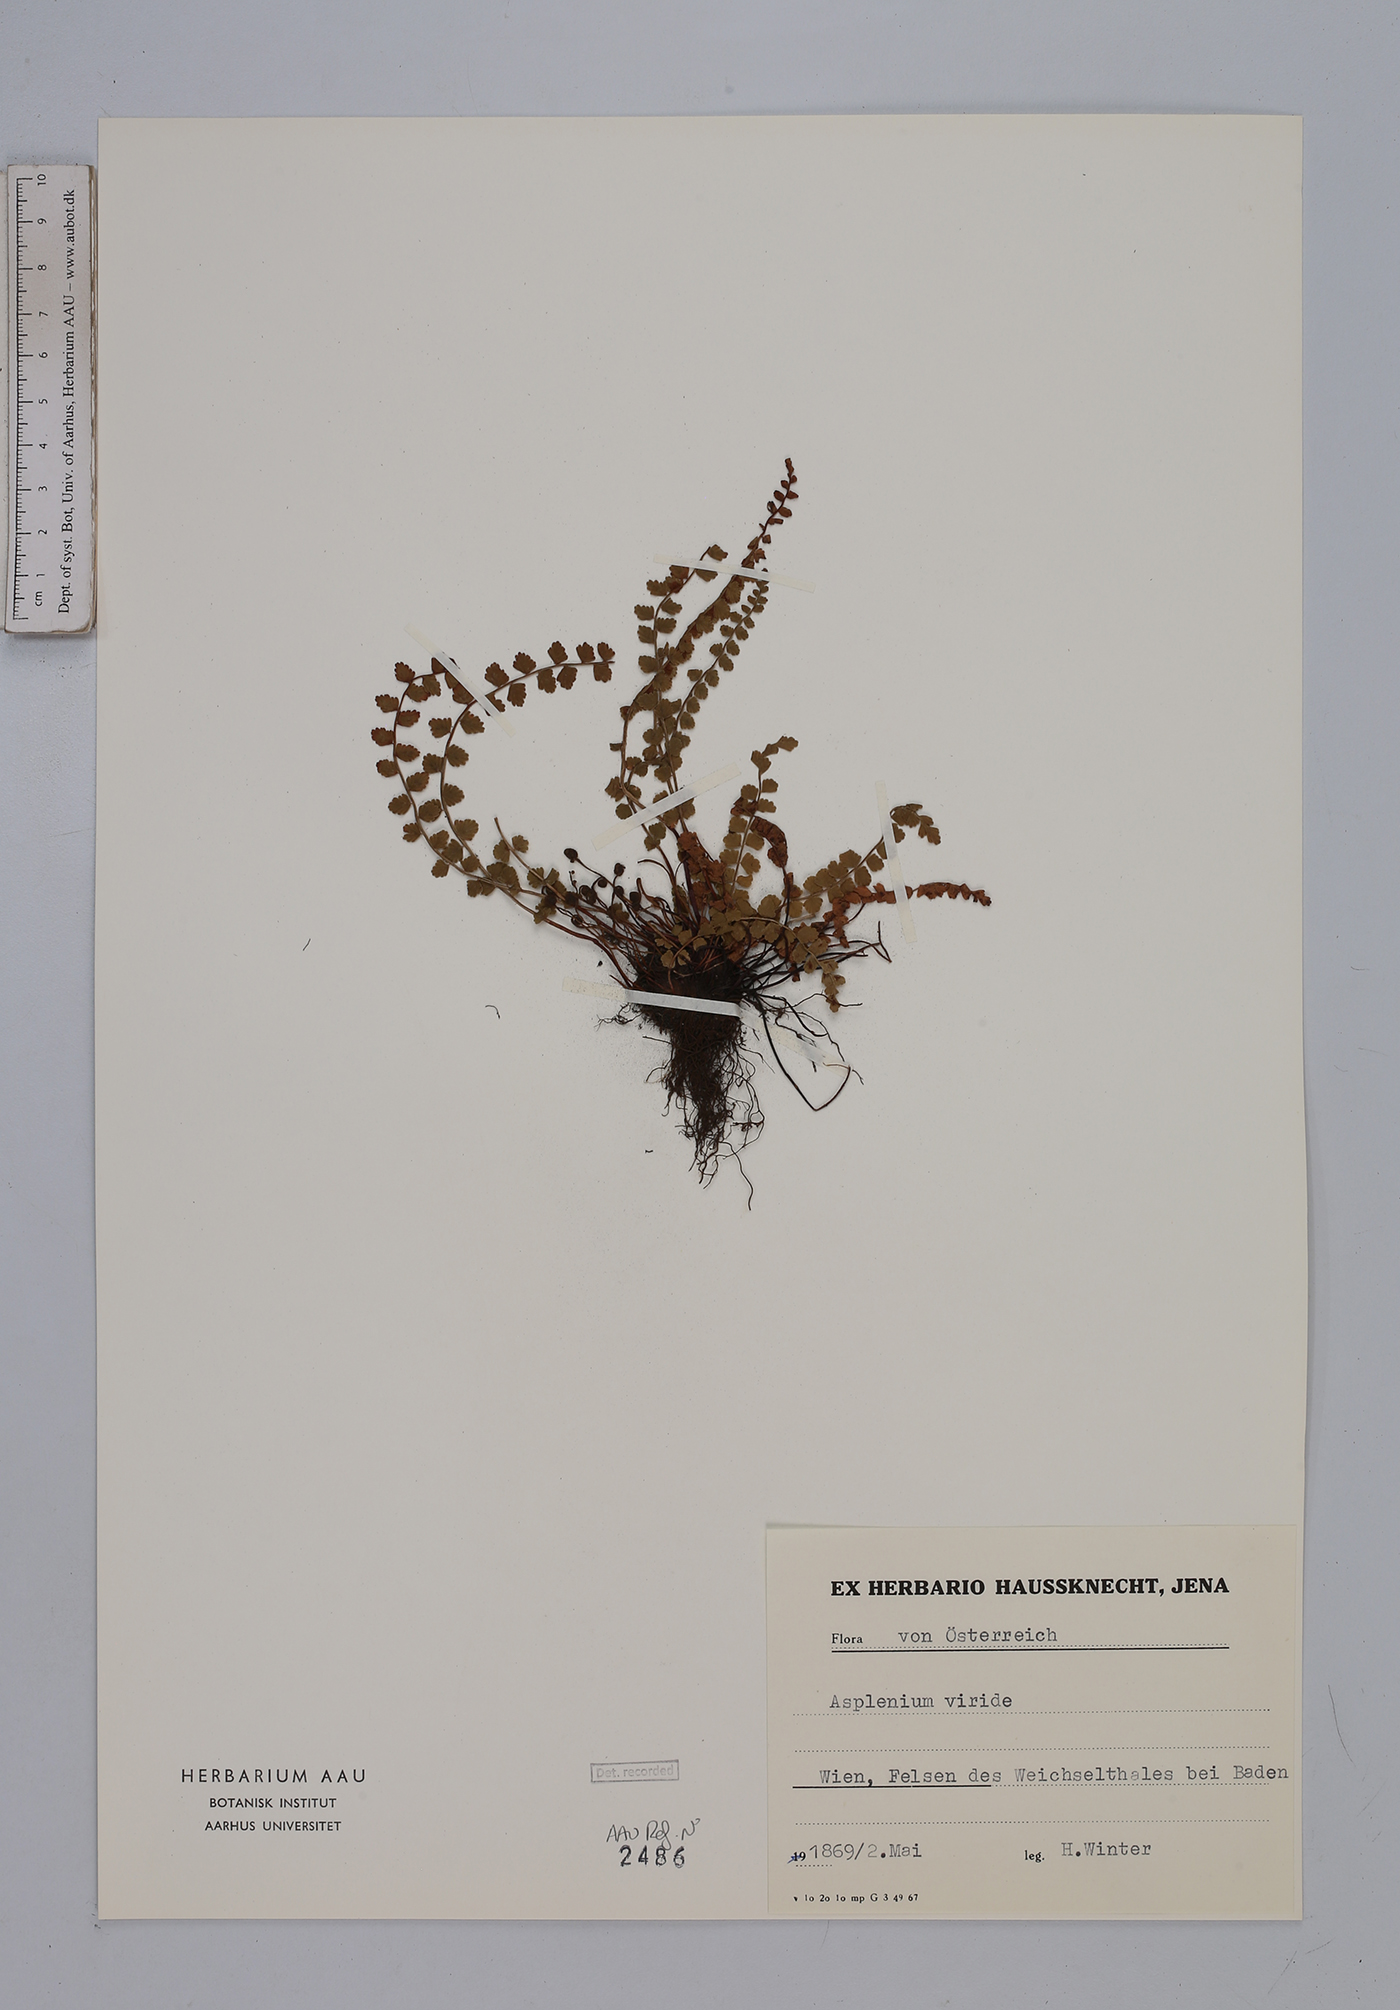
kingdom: Plantae
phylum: Tracheophyta
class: Polypodiopsida
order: Polypodiales
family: Aspleniaceae
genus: Asplenium
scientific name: Asplenium viride
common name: Green spleenwort
